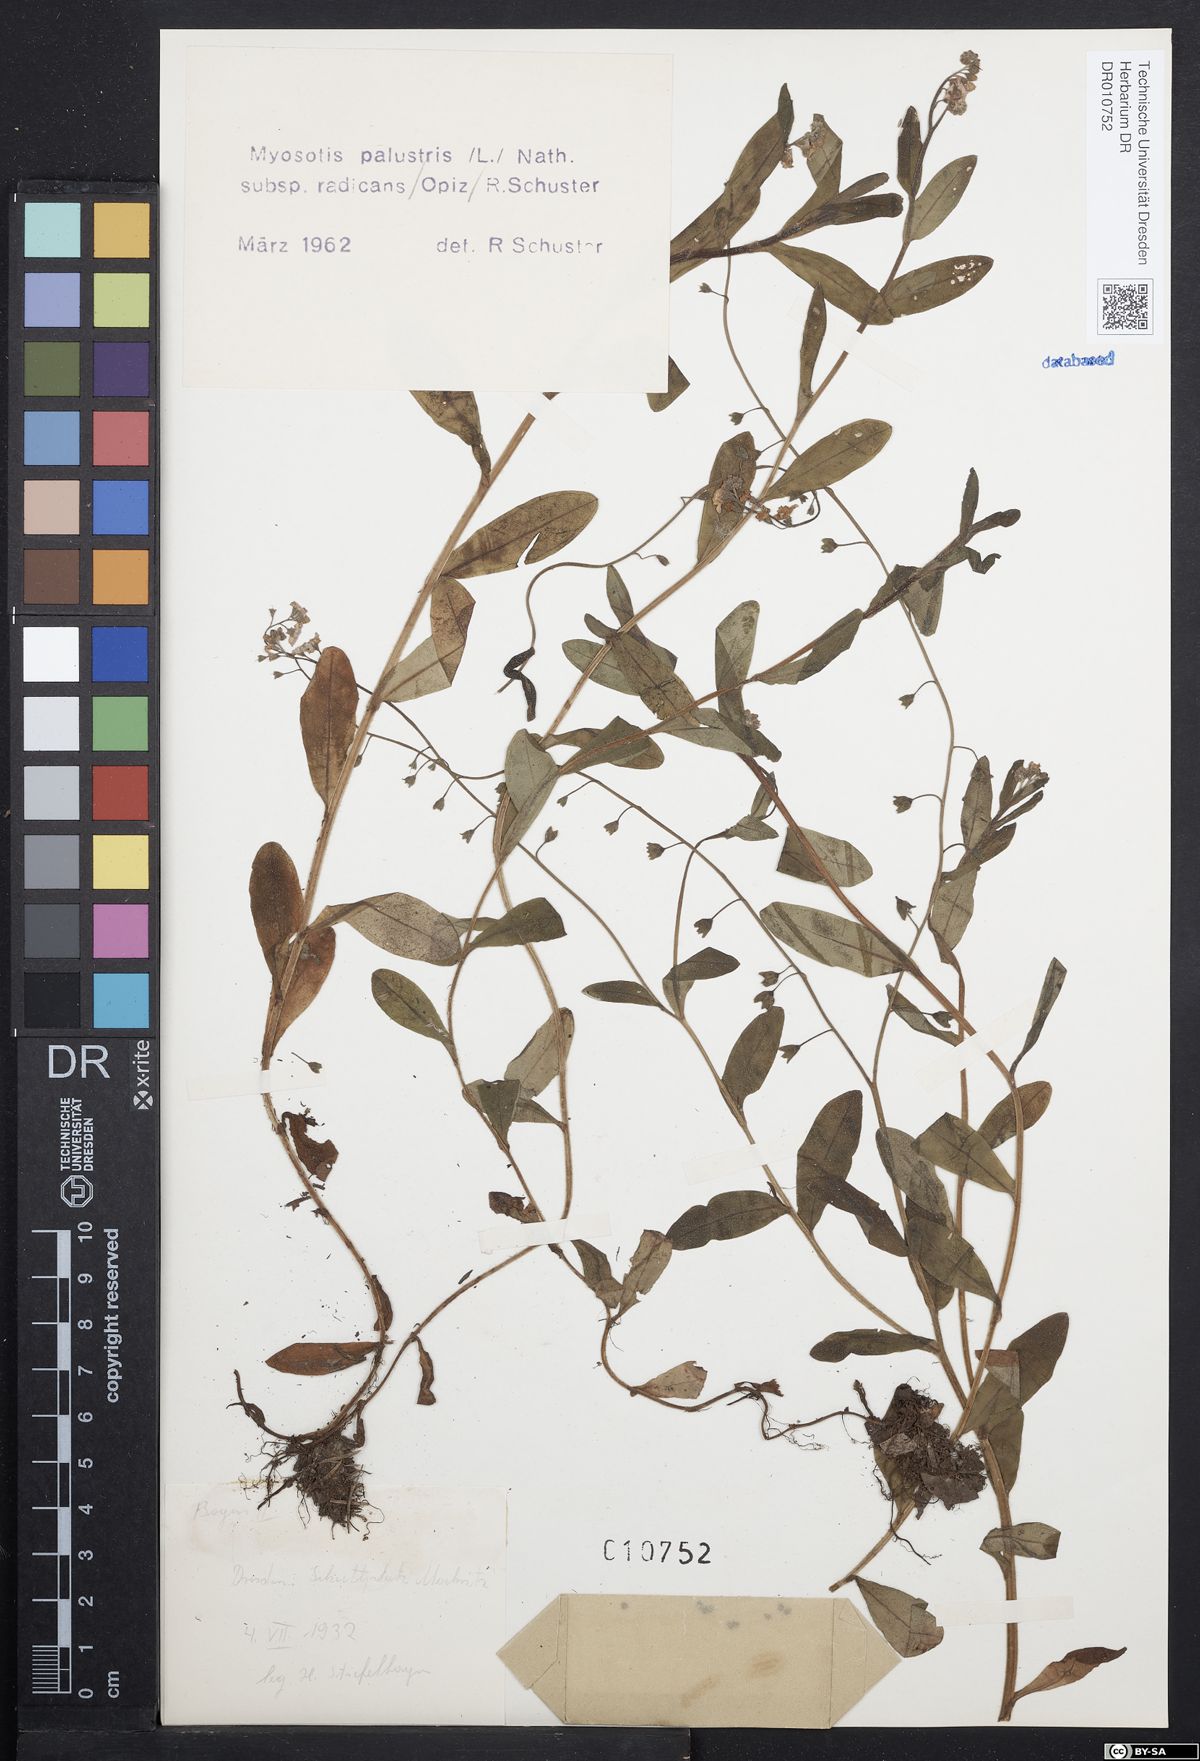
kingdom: Plantae
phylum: Tracheophyta
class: Magnoliopsida
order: Boraginales
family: Boraginaceae
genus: Myosotis
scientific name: Myosotis scorpioides
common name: Water forget-me-not
